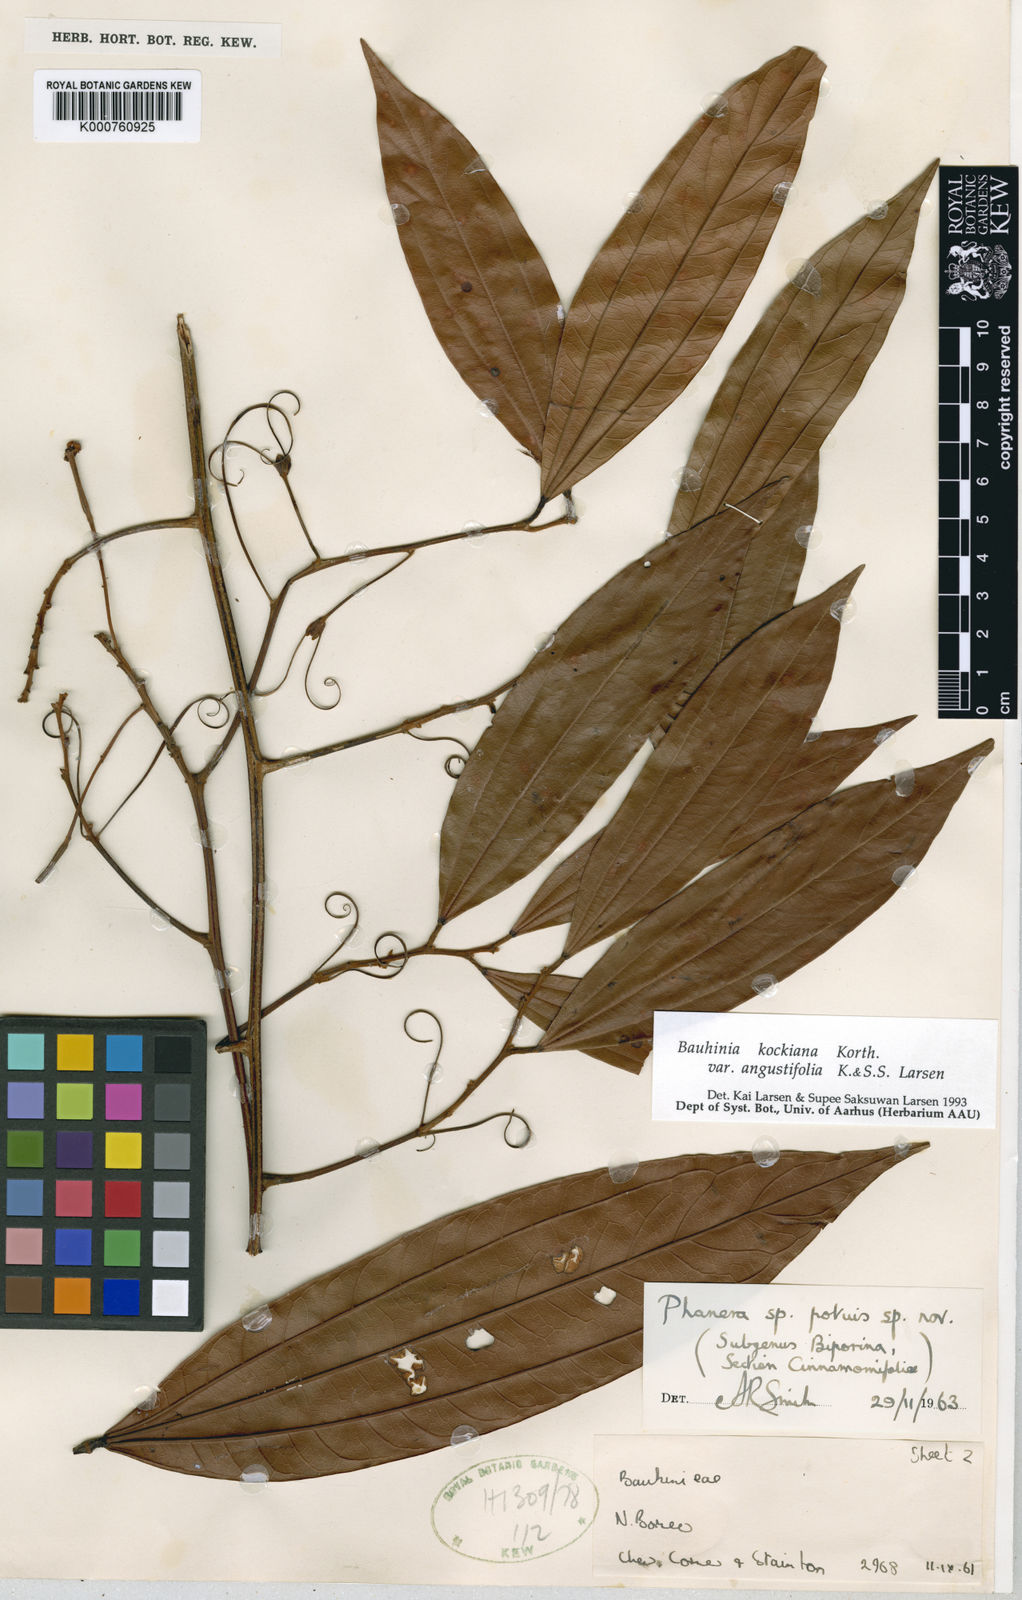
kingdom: Plantae
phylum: Tracheophyta
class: Magnoliopsida
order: Fabales
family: Fabaceae
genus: Phanera
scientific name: Phanera kockiana
